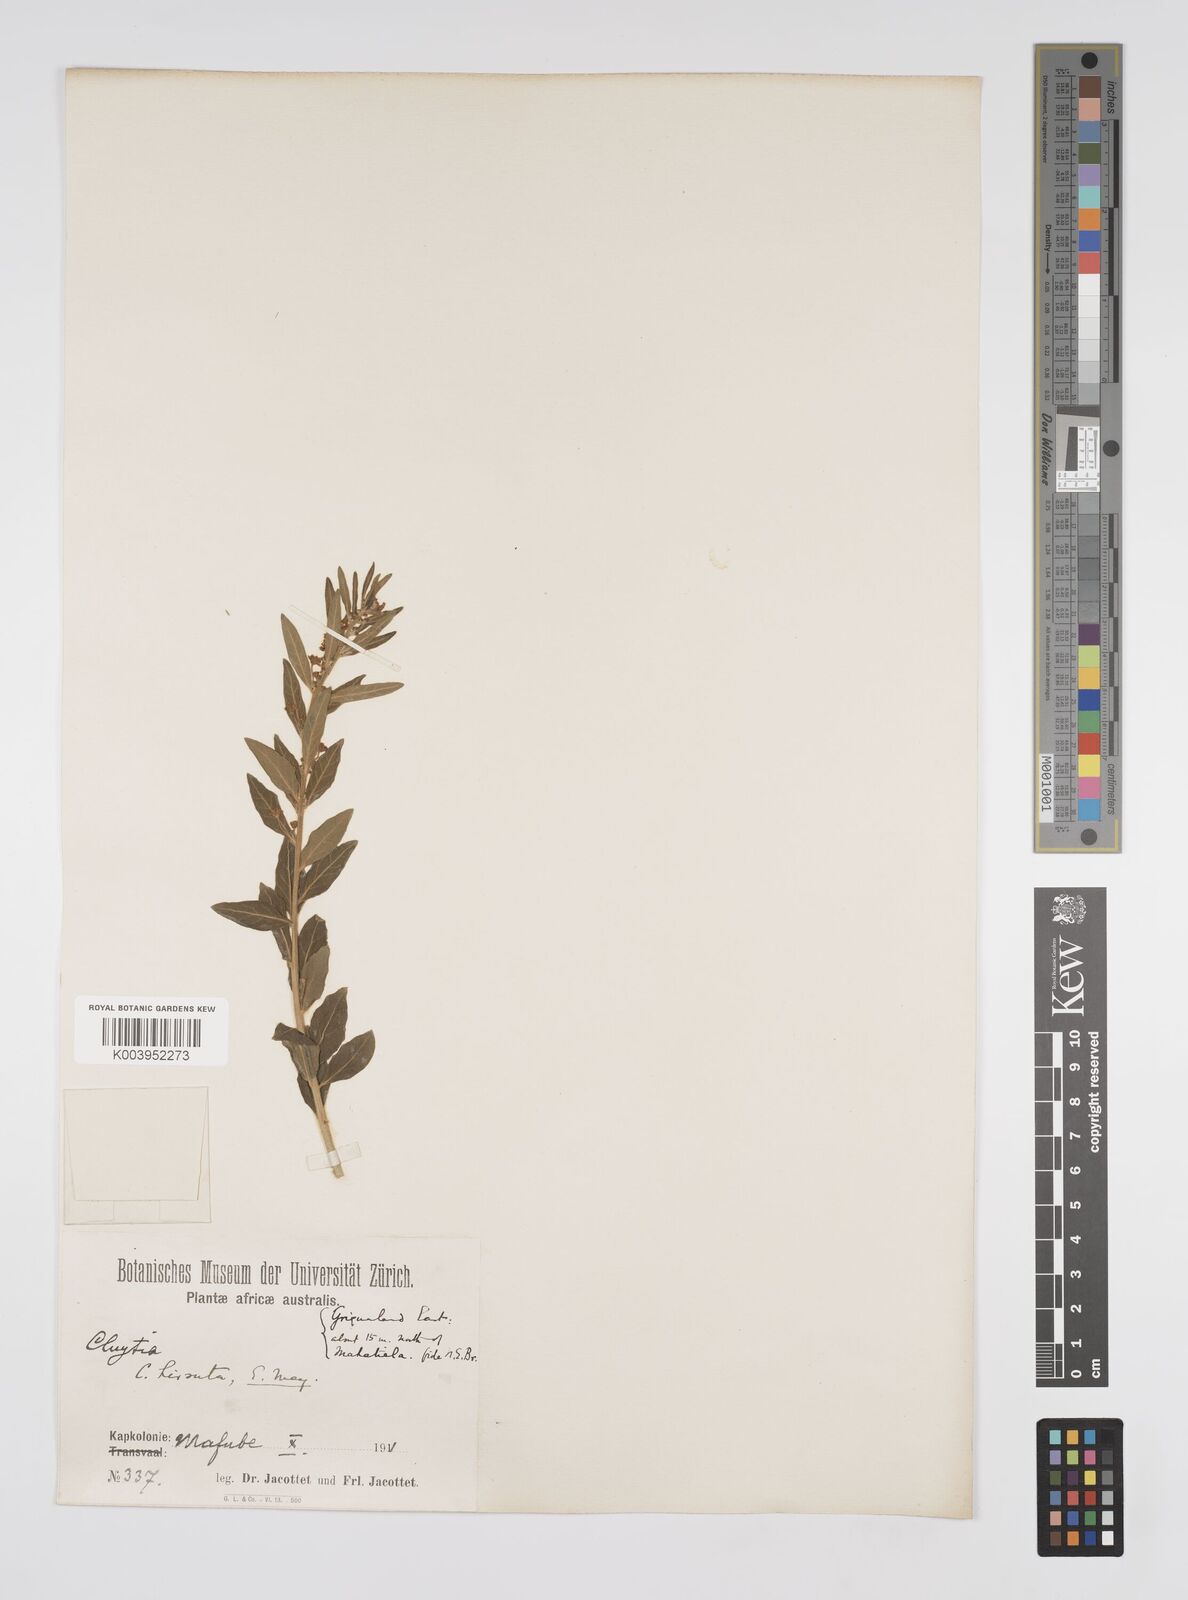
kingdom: Plantae
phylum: Tracheophyta
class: Magnoliopsida
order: Malpighiales
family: Peraceae
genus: Clutia
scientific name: Clutia affinis
